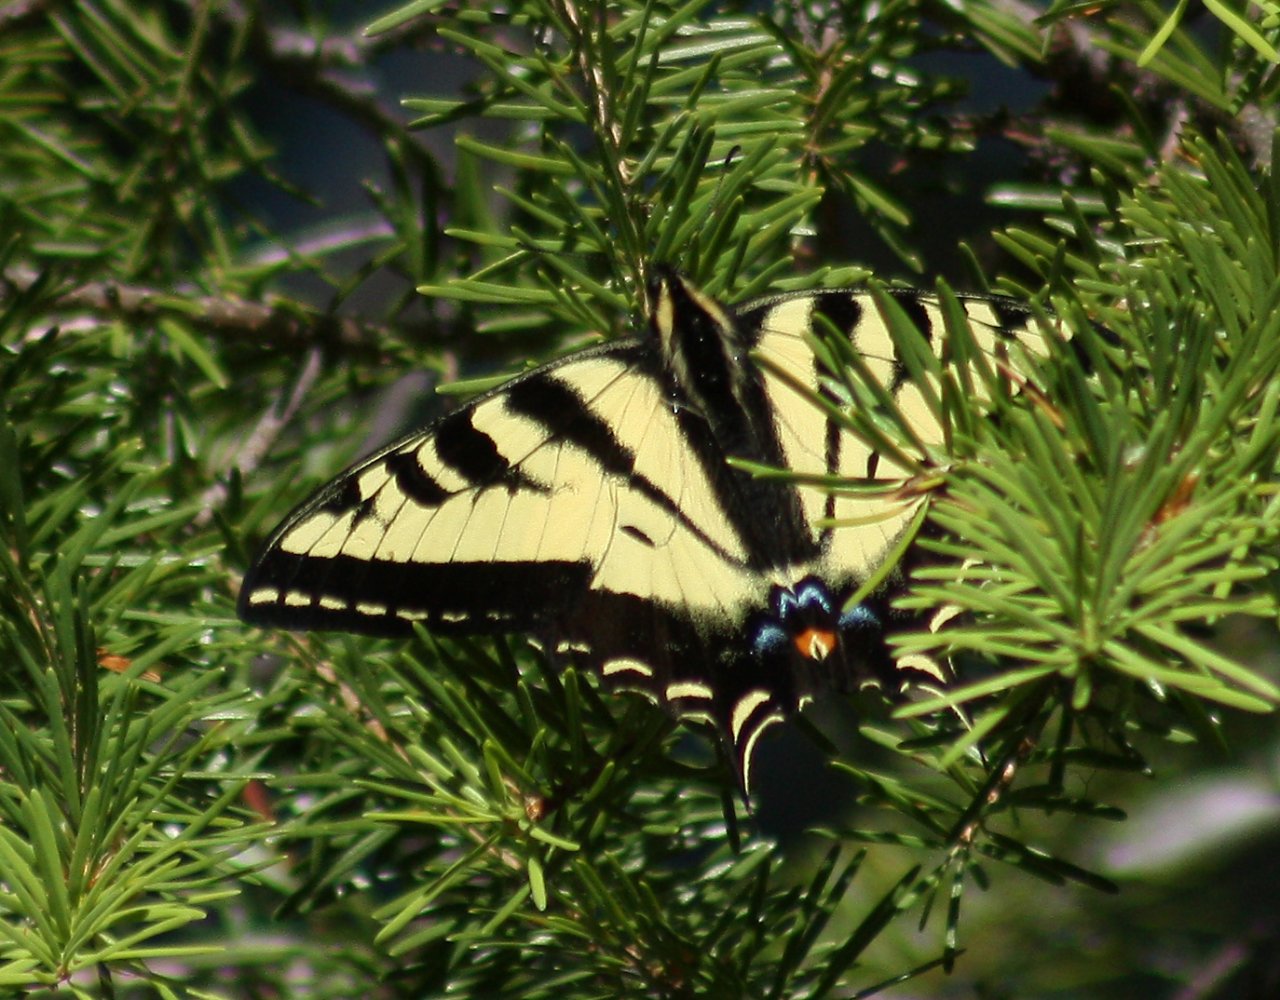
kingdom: Animalia
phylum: Arthropoda
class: Insecta
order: Lepidoptera
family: Papilionidae
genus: Pterourus
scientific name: Pterourus rutulus
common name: Western Tiger Swallowtail
